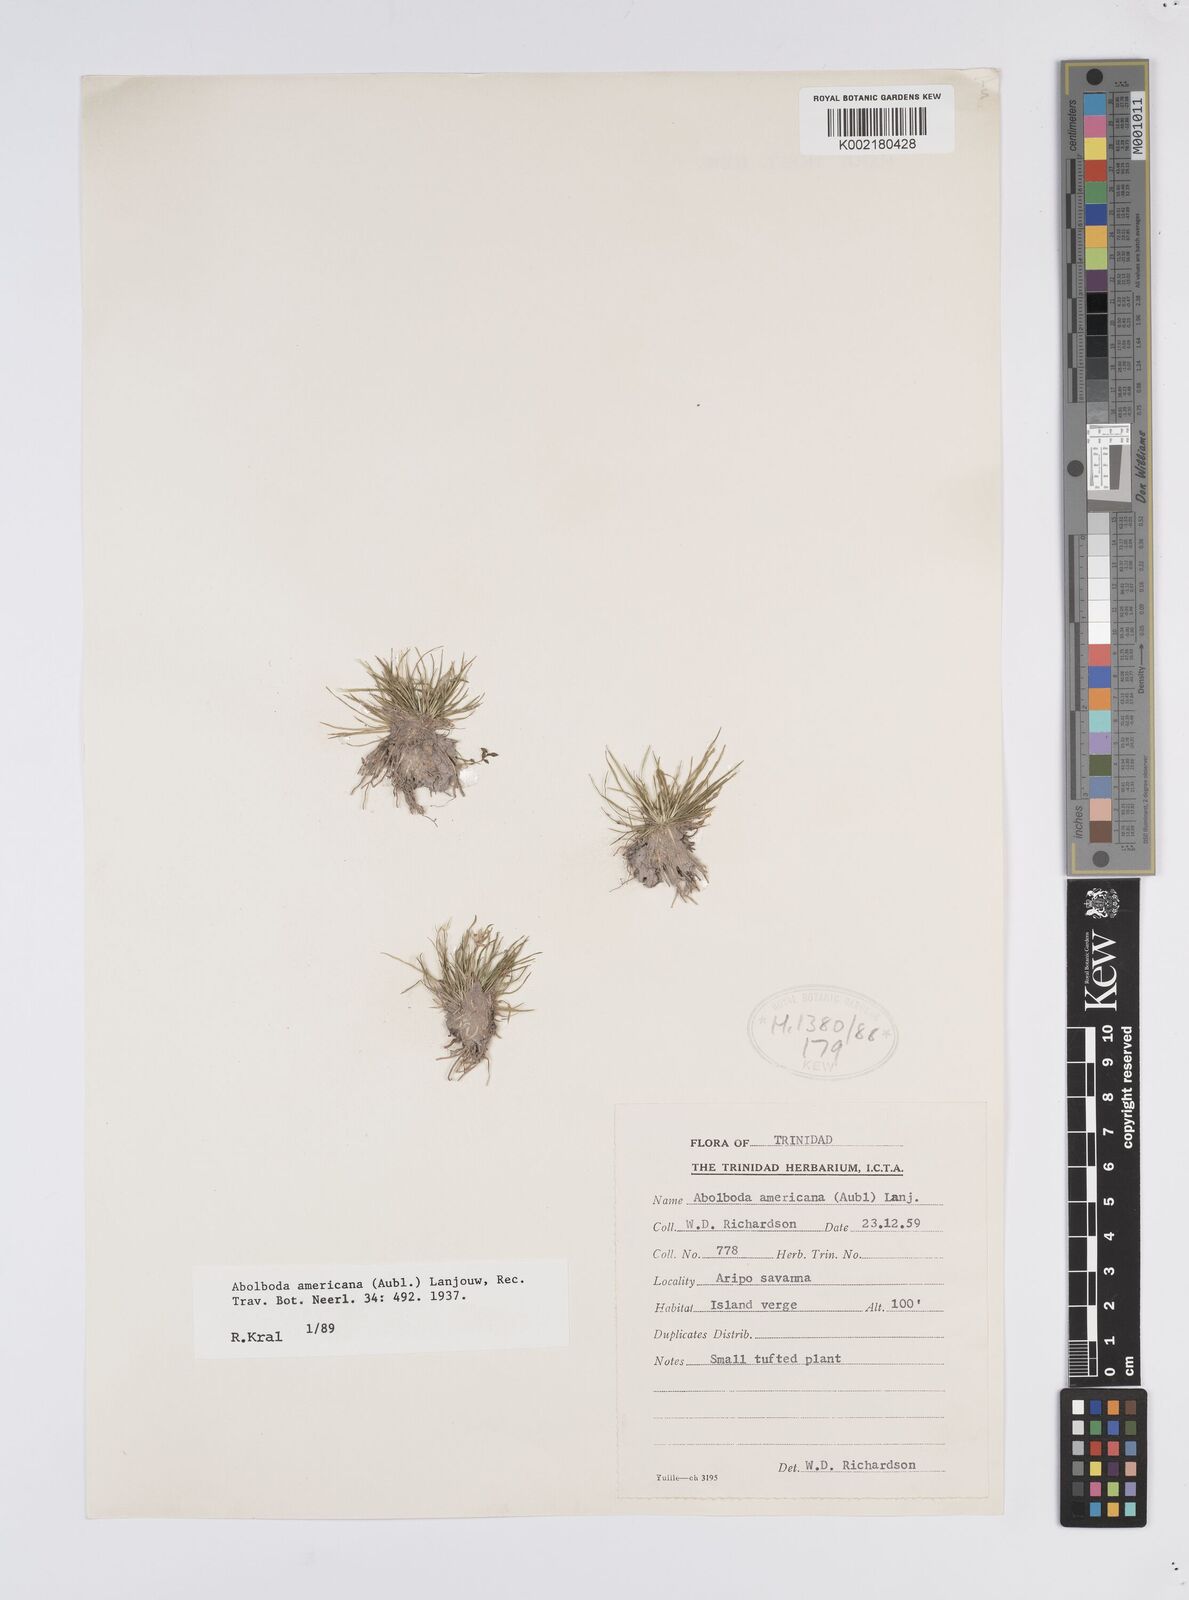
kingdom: Plantae
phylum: Tracheophyta
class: Liliopsida
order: Poales
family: Xyridaceae
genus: Abolboda
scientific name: Abolboda americana
